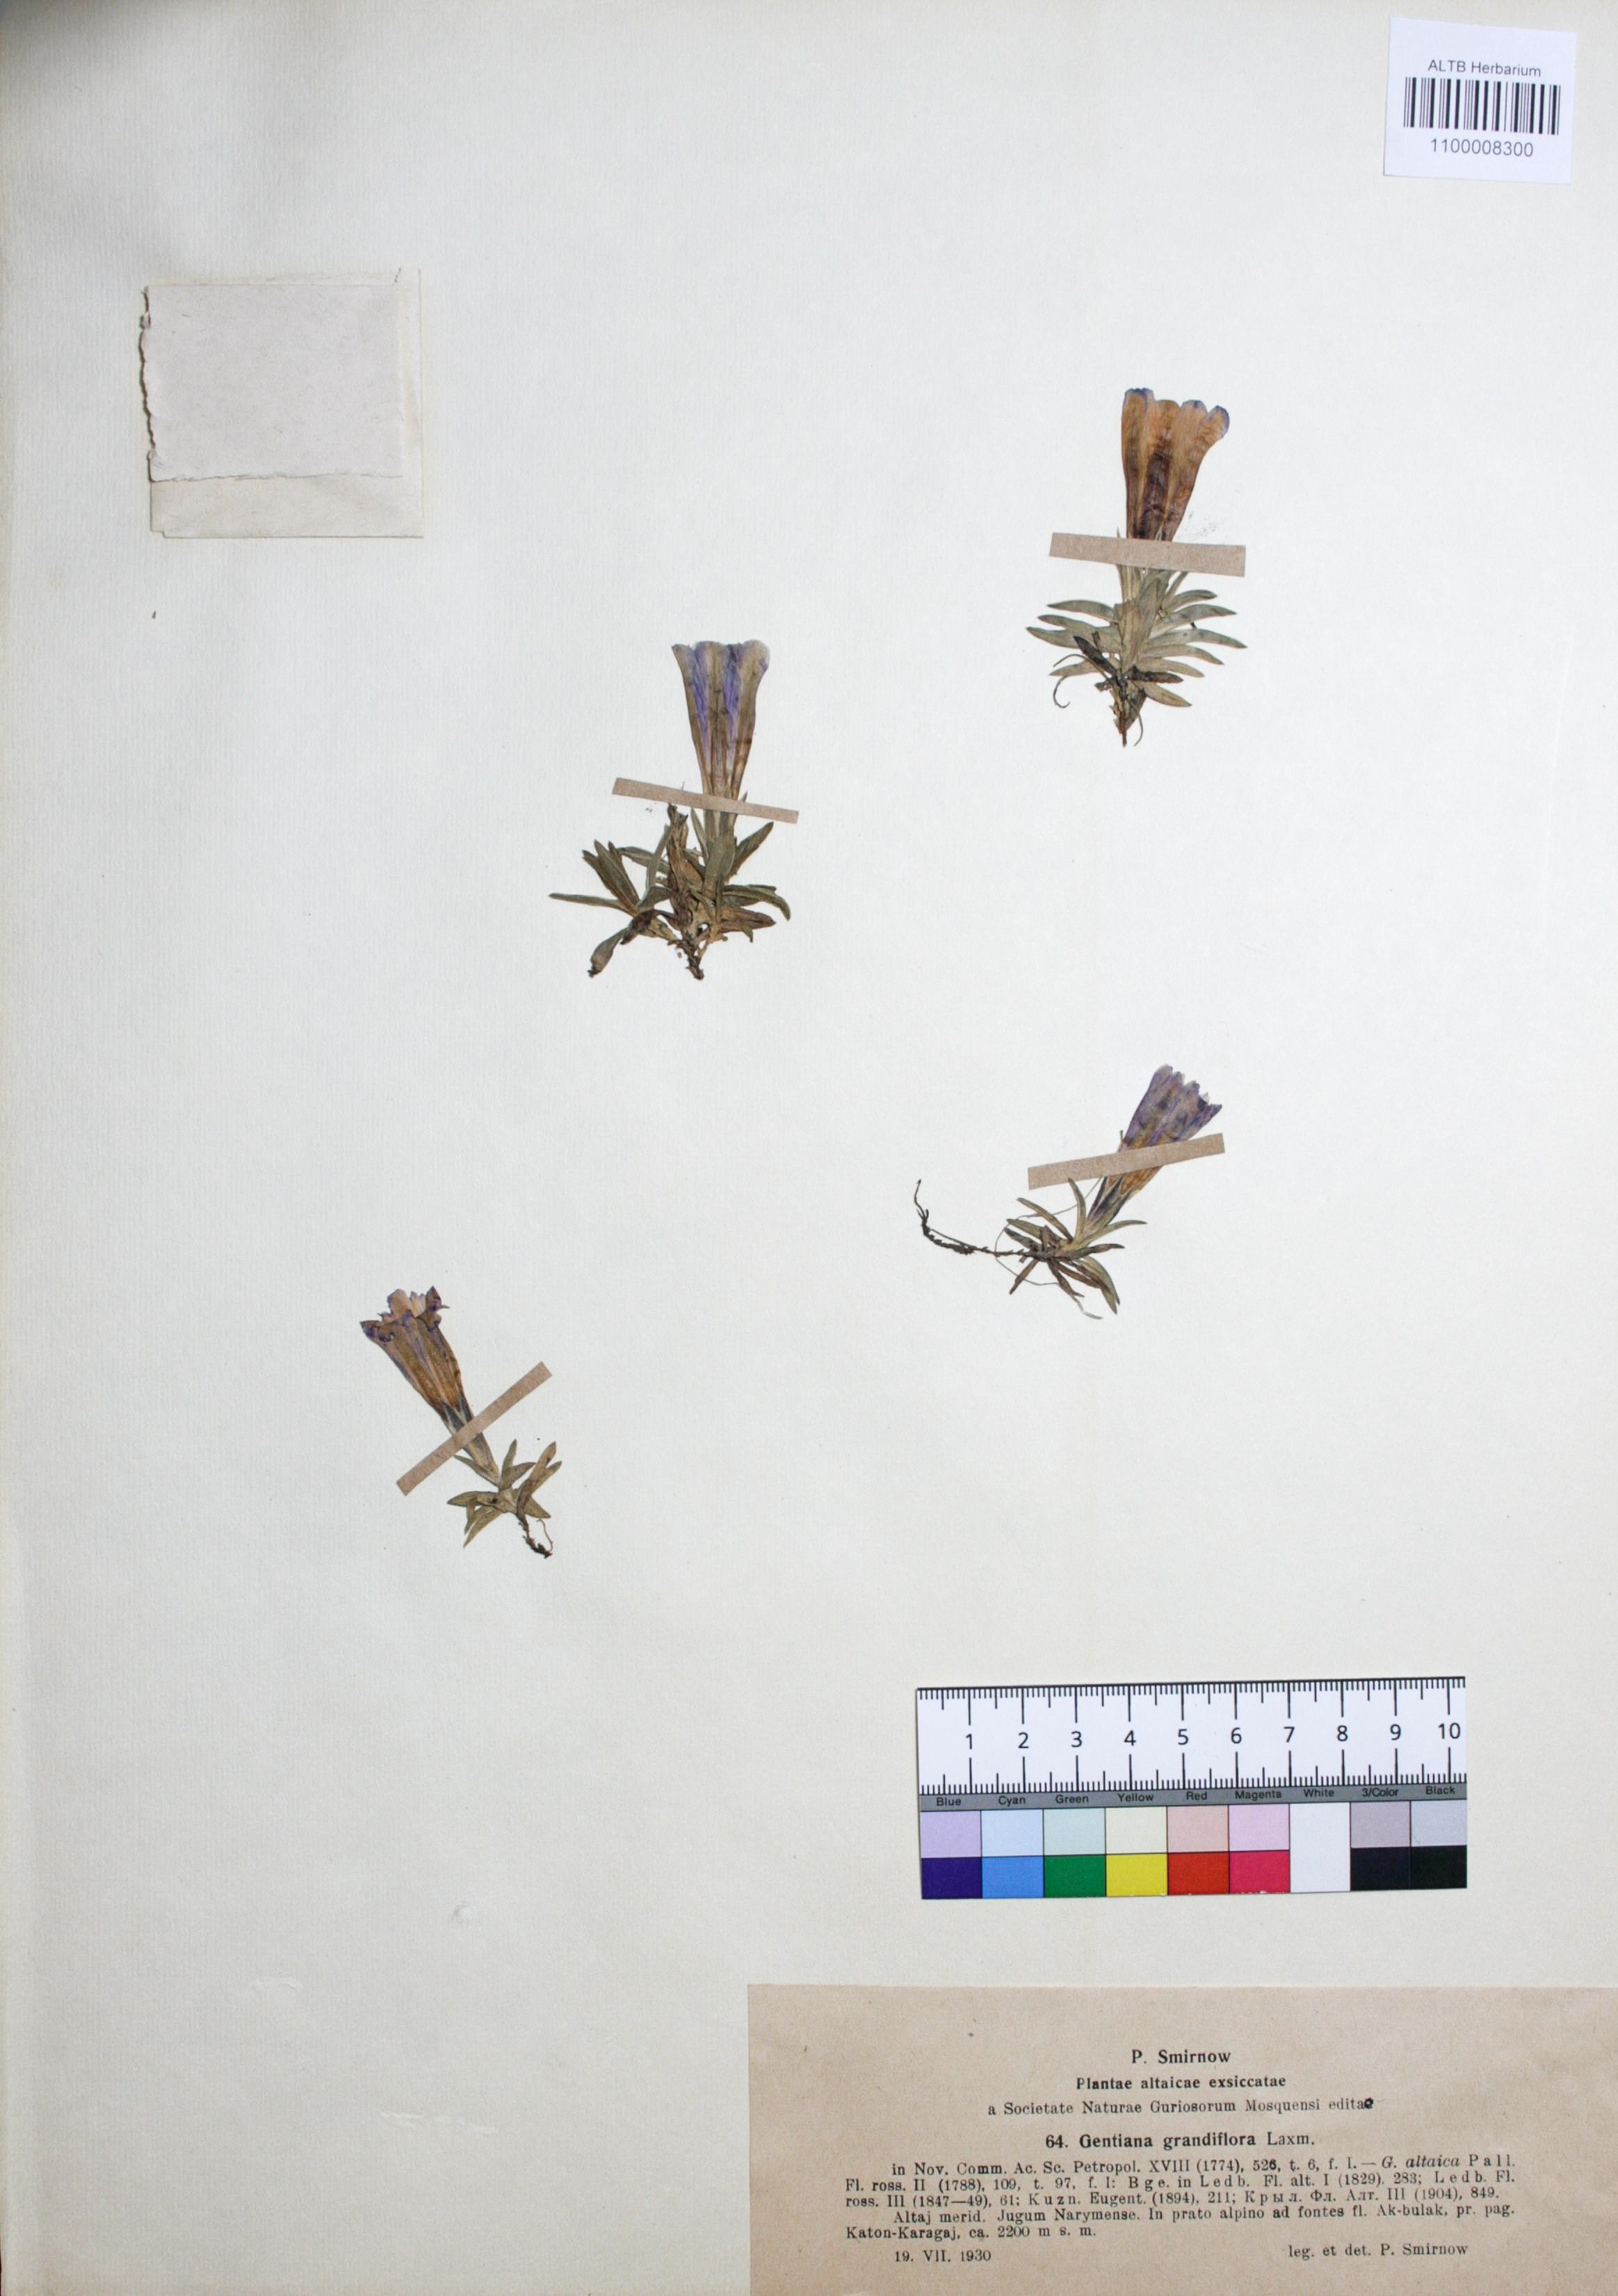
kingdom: Plantae
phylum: Tracheophyta
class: Magnoliopsida
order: Gentianales
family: Gentianaceae
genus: Gentiana
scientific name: Gentiana grandiflora
